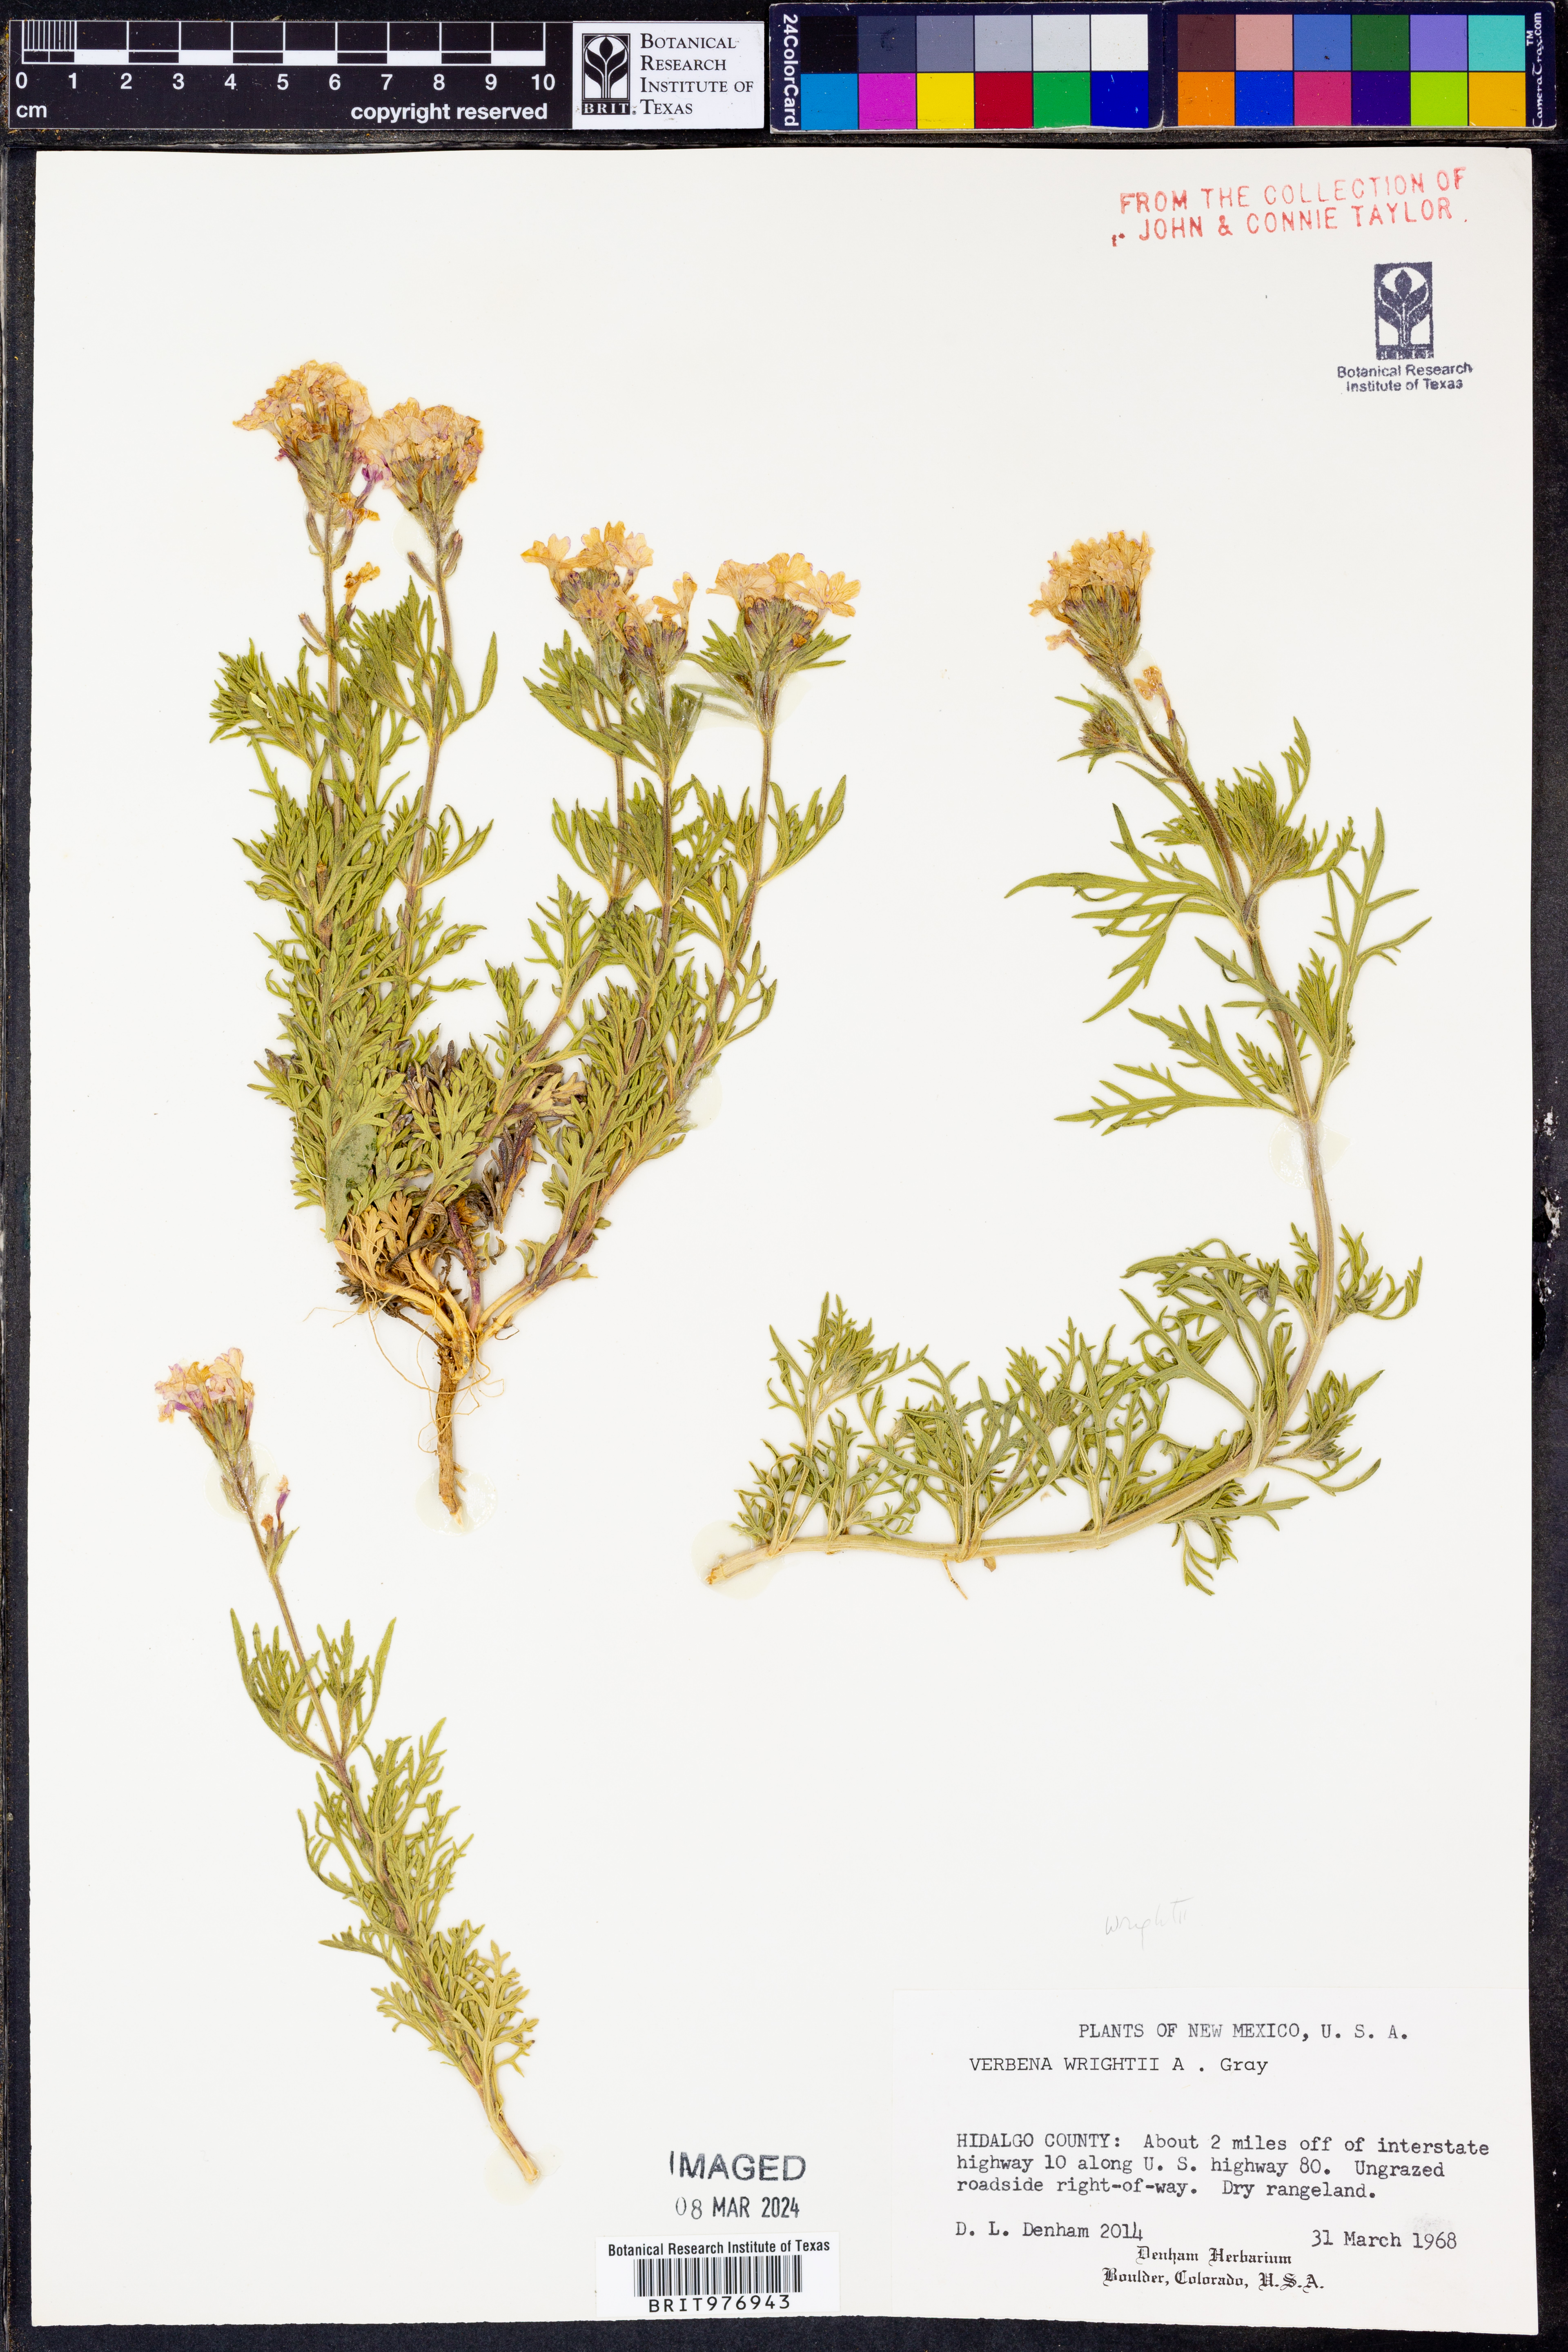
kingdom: Plantae
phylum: Tracheophyta
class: Magnoliopsida
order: Lamiales
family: Verbenaceae
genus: Verbena
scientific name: Verbena bipinnatifida
